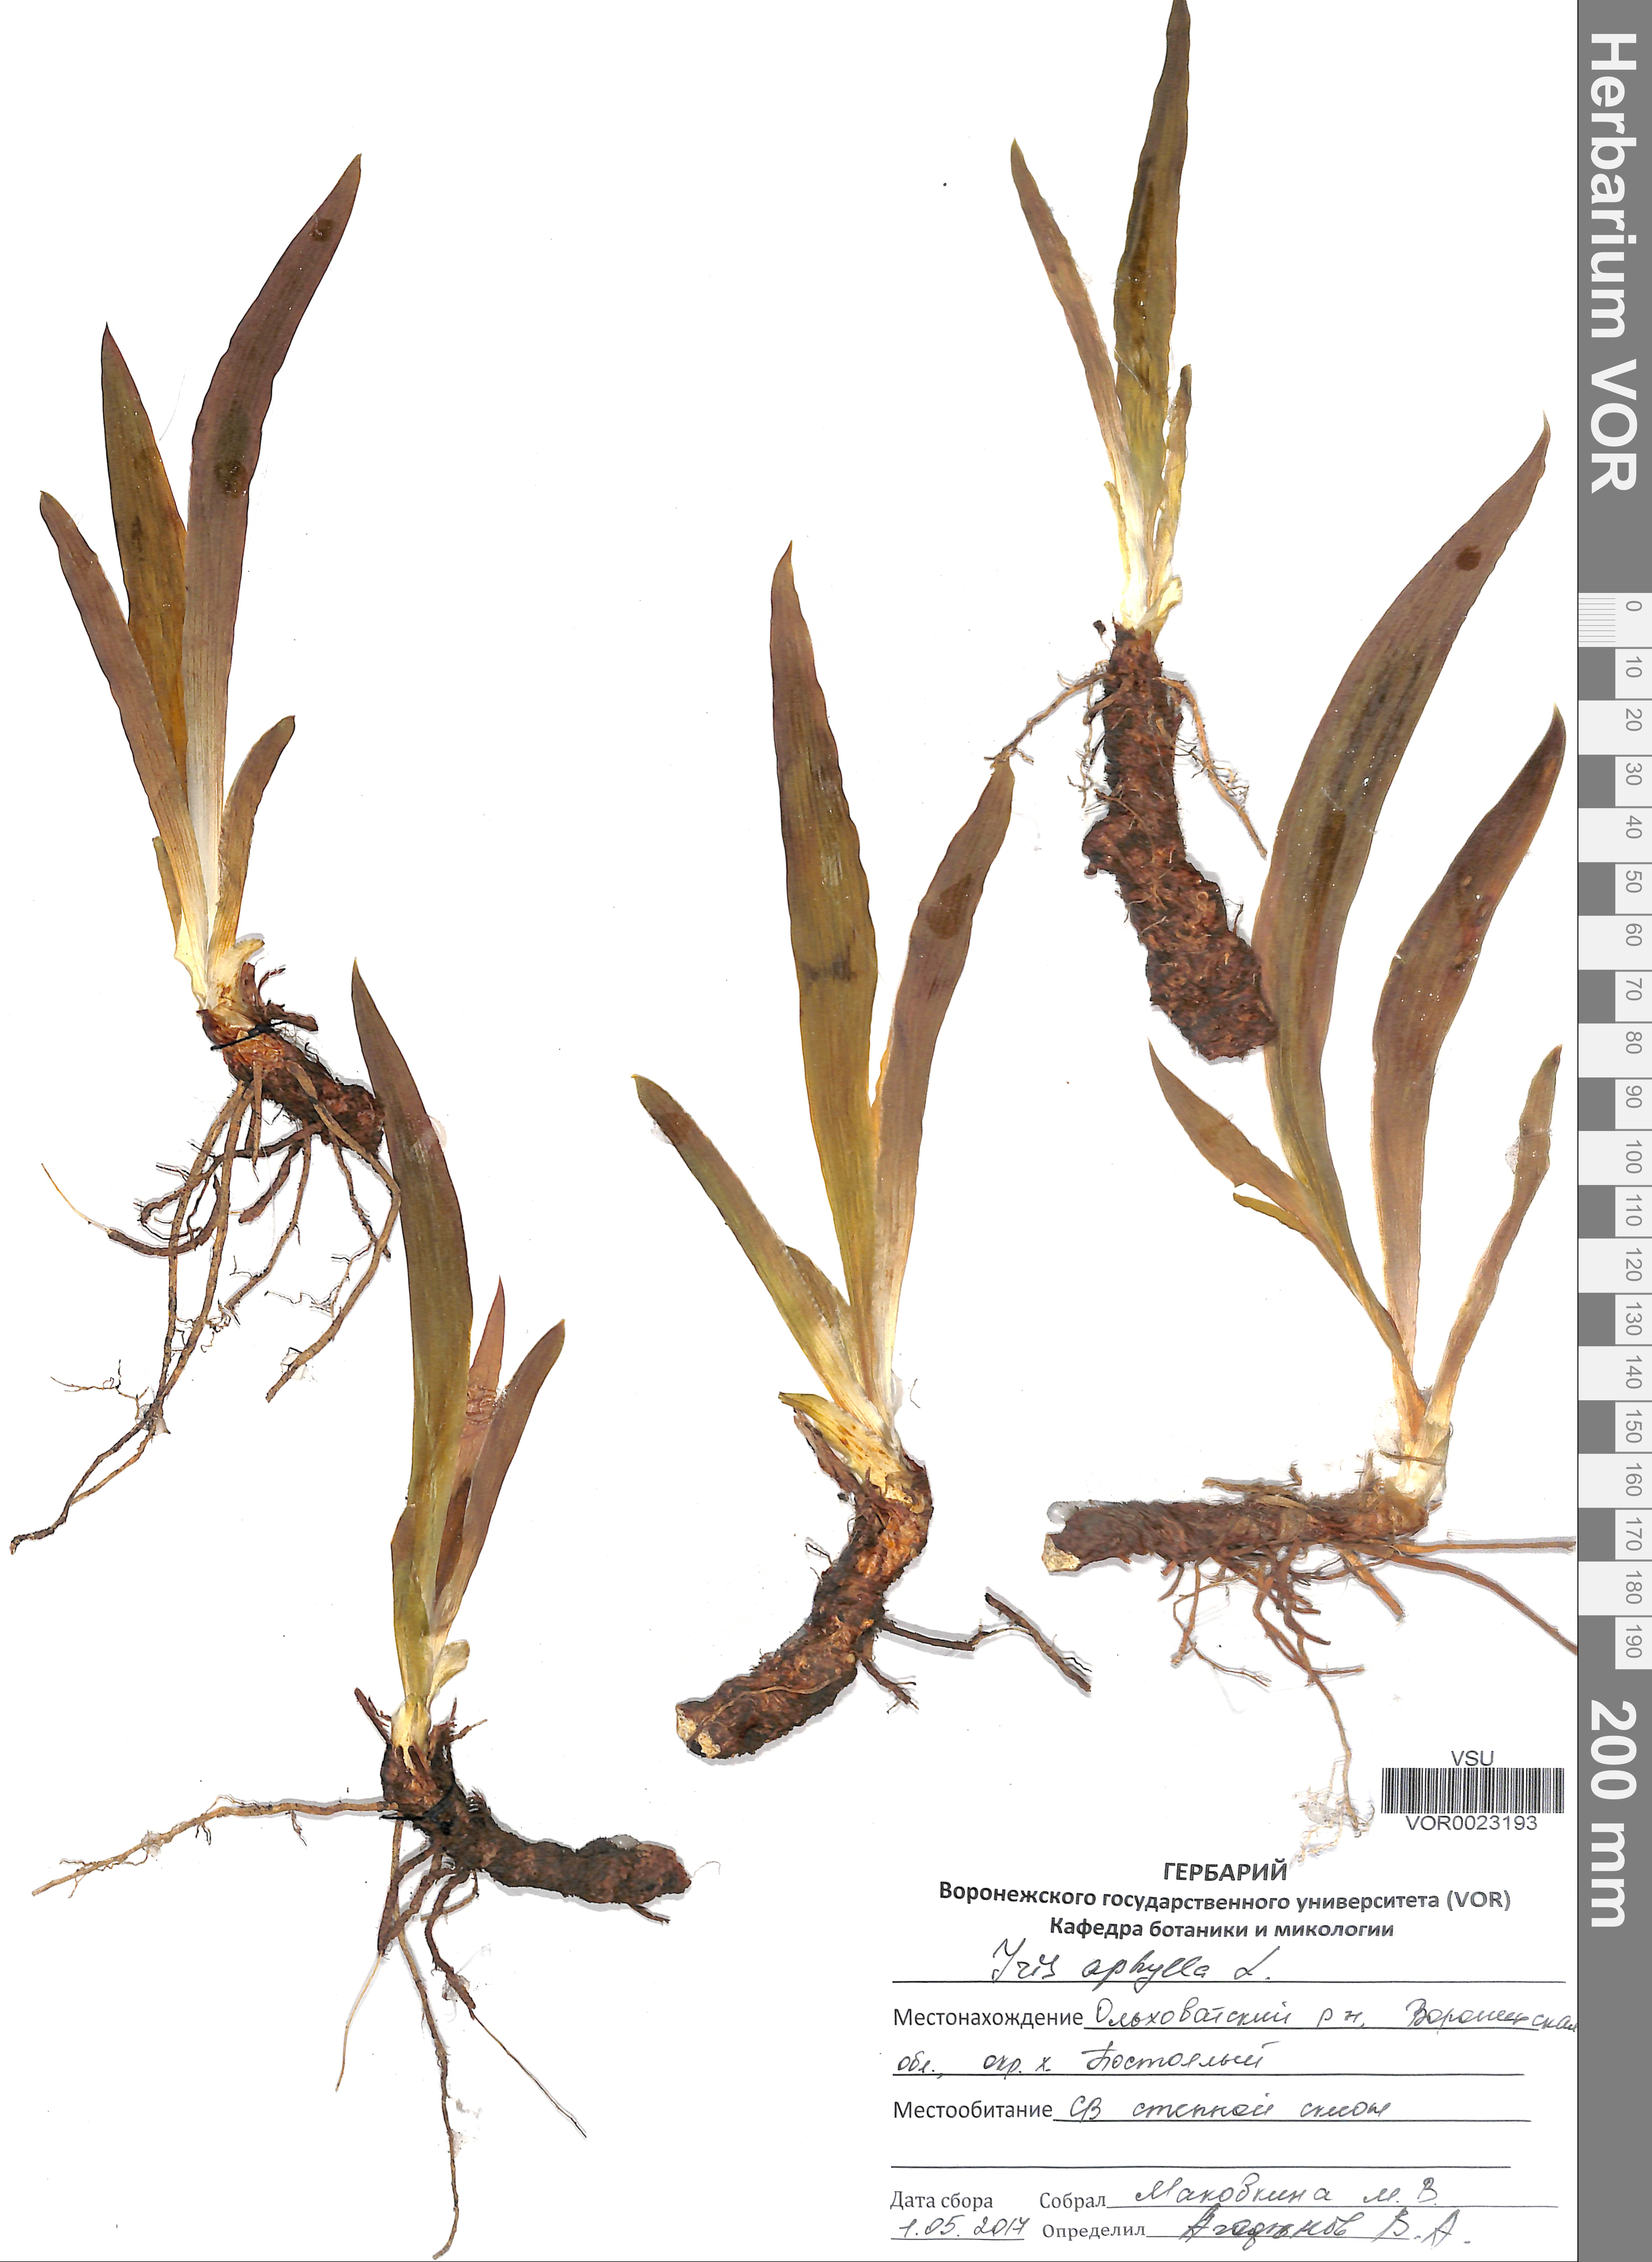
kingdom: Plantae
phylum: Tracheophyta
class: Liliopsida
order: Asparagales
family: Iridaceae
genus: Iris
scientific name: Iris aphylla
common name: Stool iris
